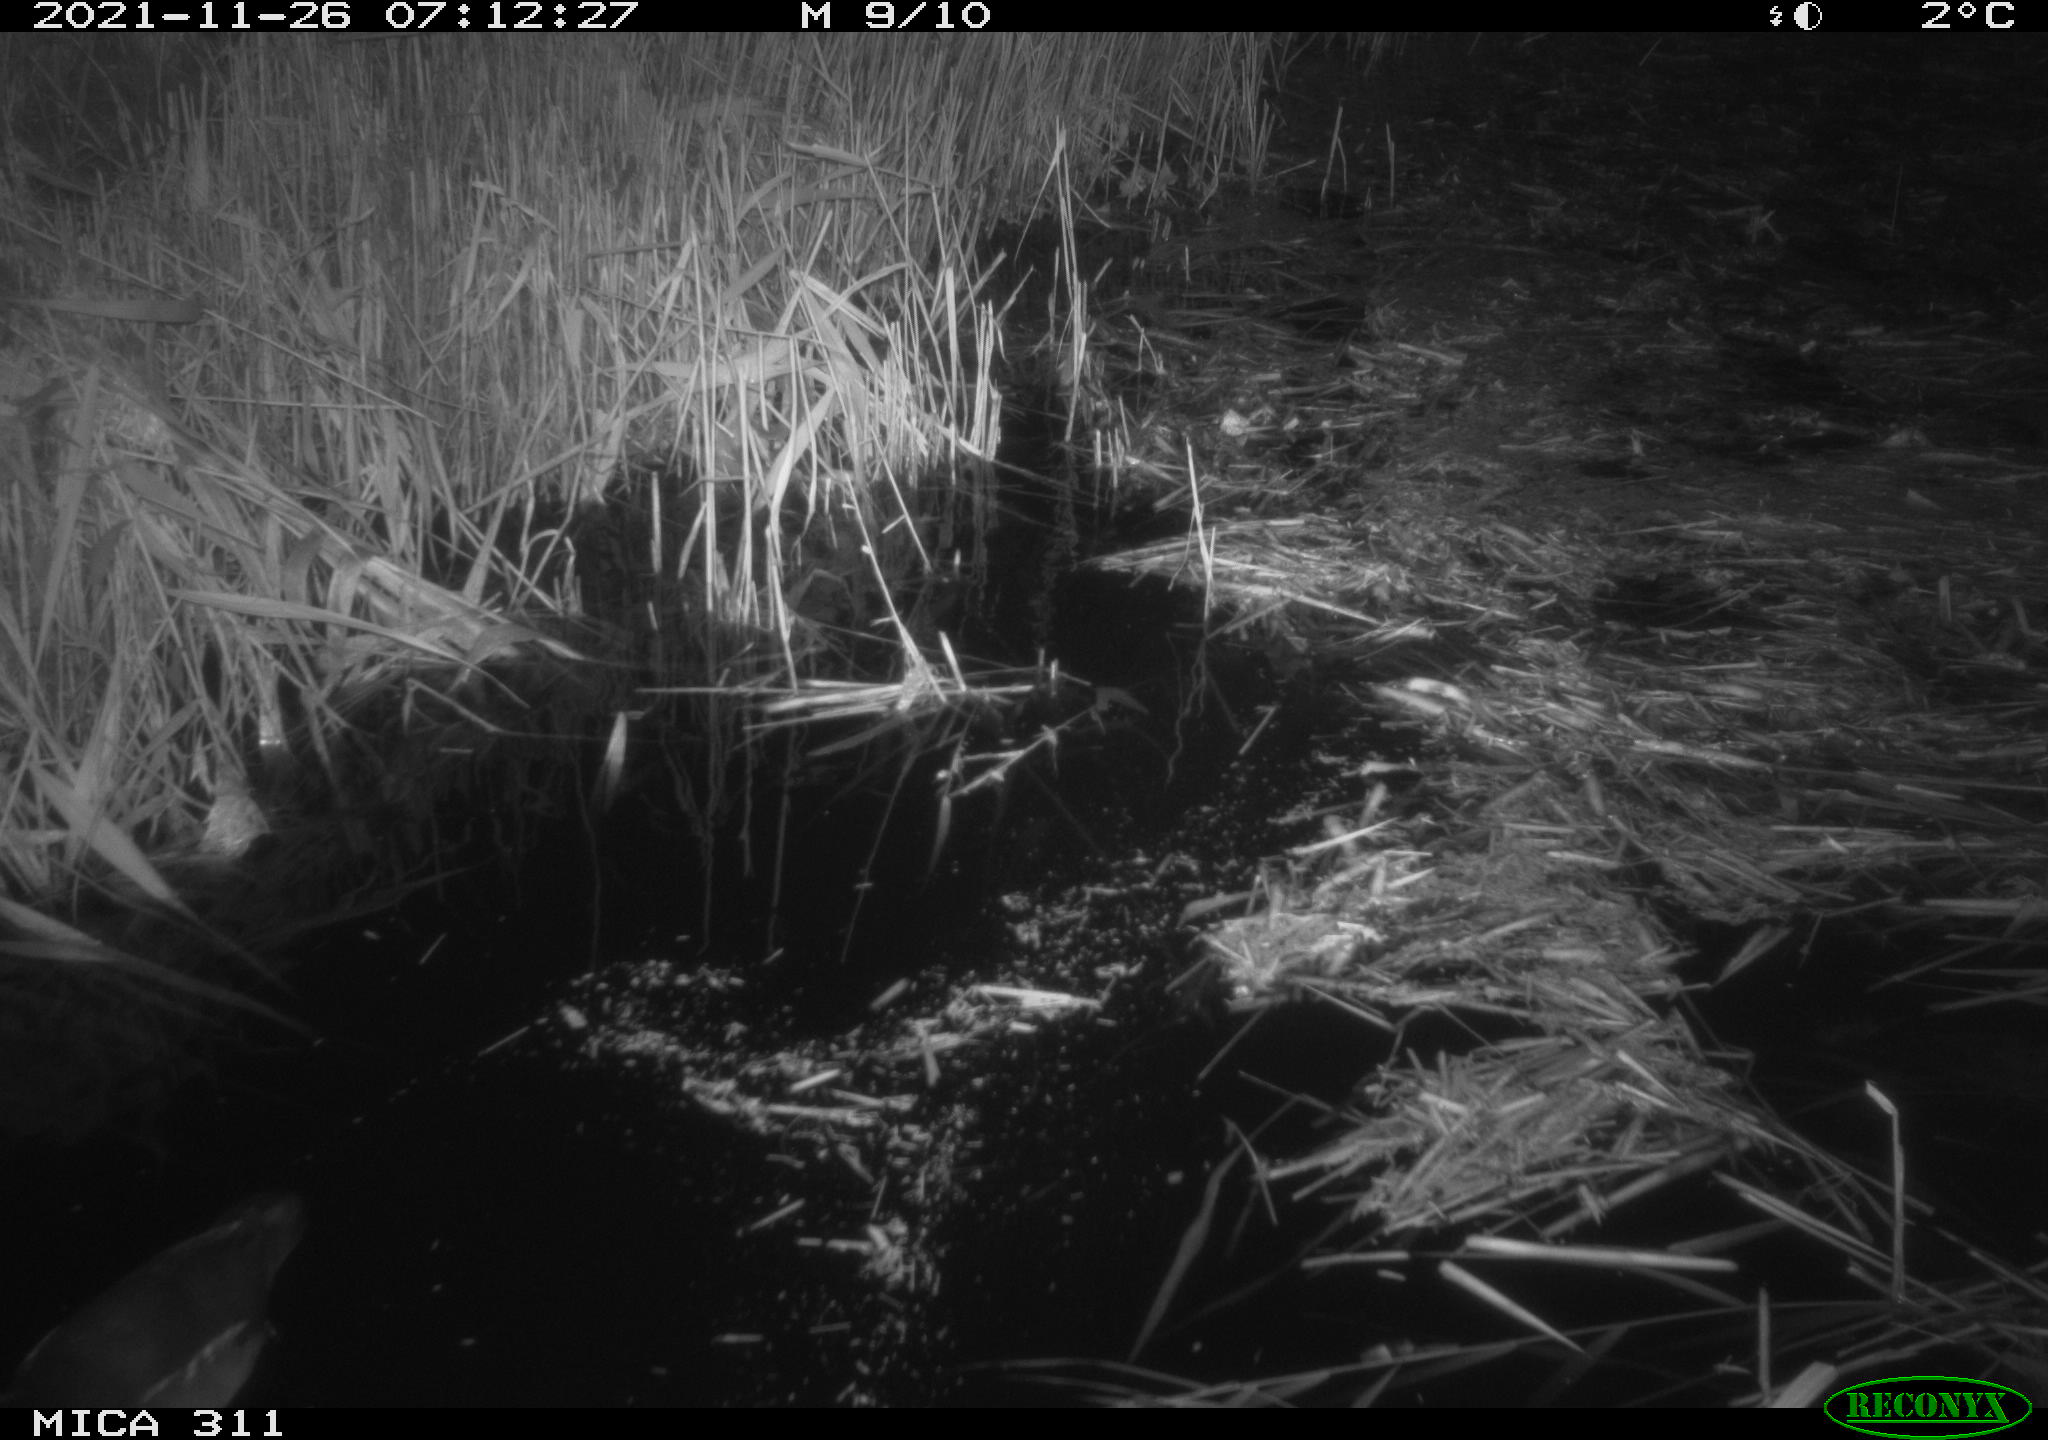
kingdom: Animalia
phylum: Chordata
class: Aves
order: Gruiformes
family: Rallidae
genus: Gallinula
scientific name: Gallinula chloropus
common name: Common moorhen
